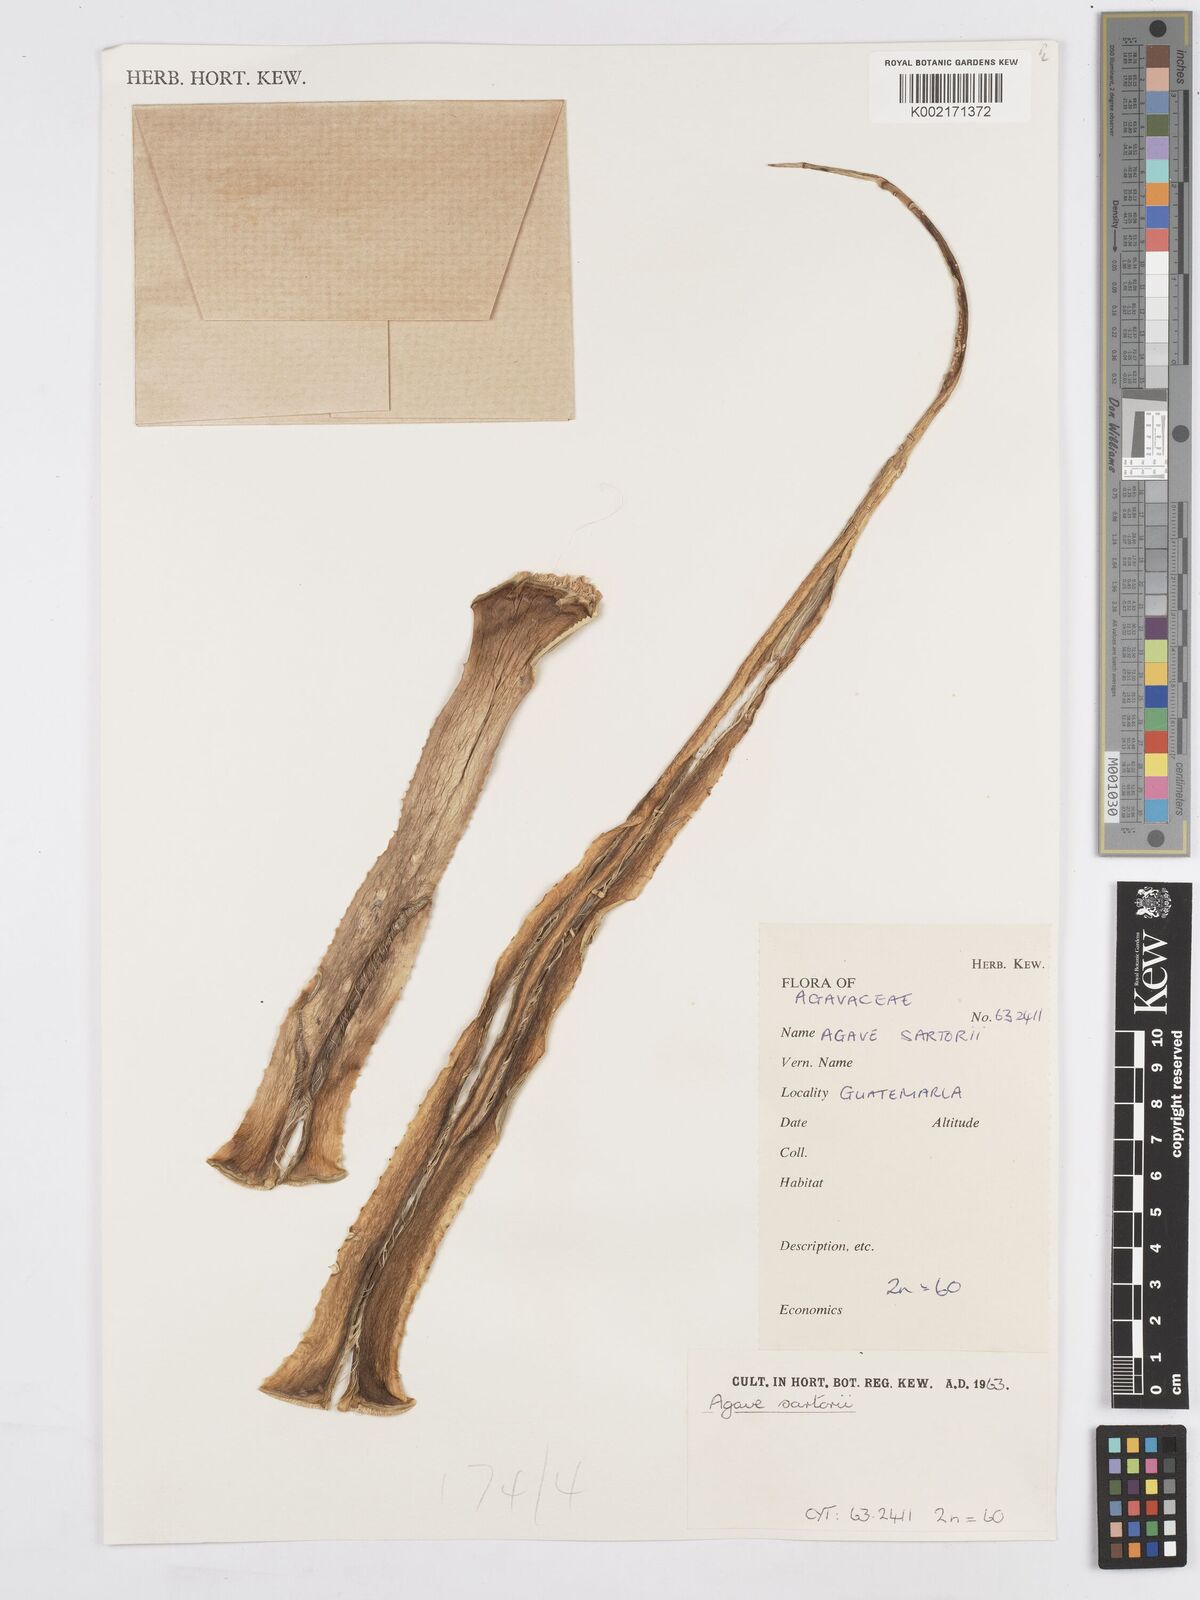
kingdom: Plantae
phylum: Tracheophyta
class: Liliopsida
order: Asparagales
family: Asparagaceae
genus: Agave
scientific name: Agave pendula
